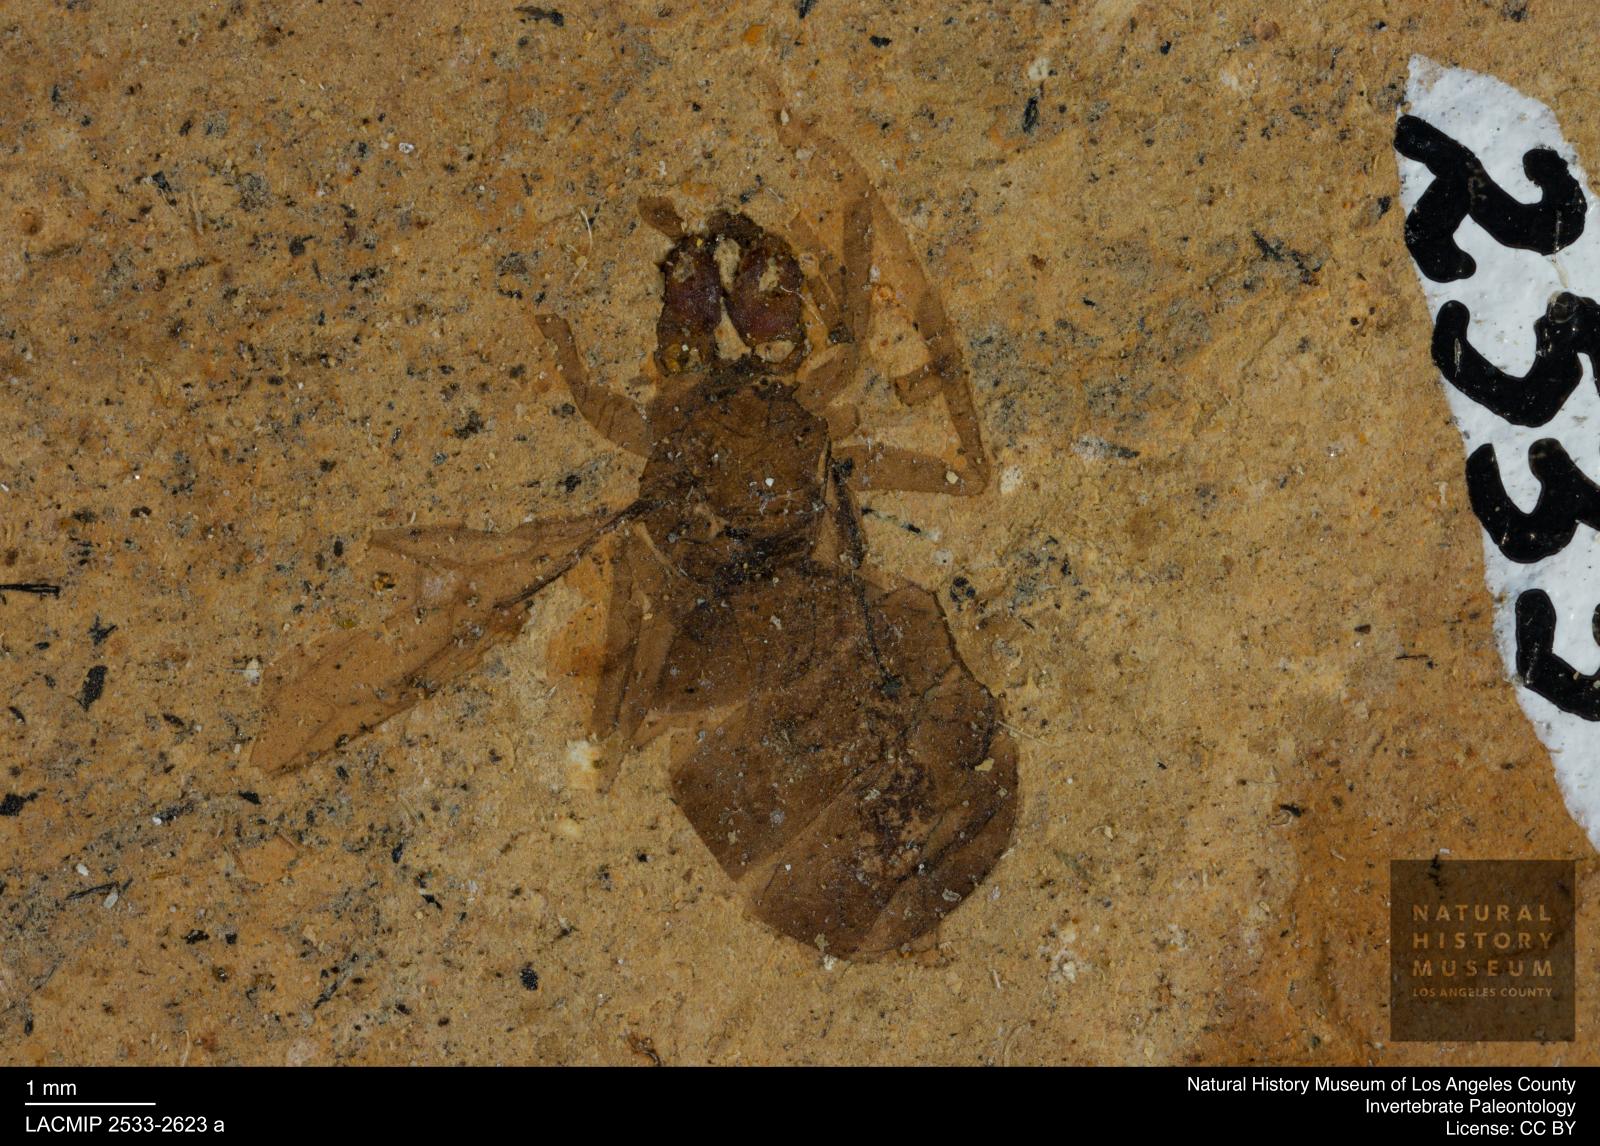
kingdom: Animalia
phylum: Arthropoda
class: Insecta
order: Hymenoptera
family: Formicidae
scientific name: Formicidae
